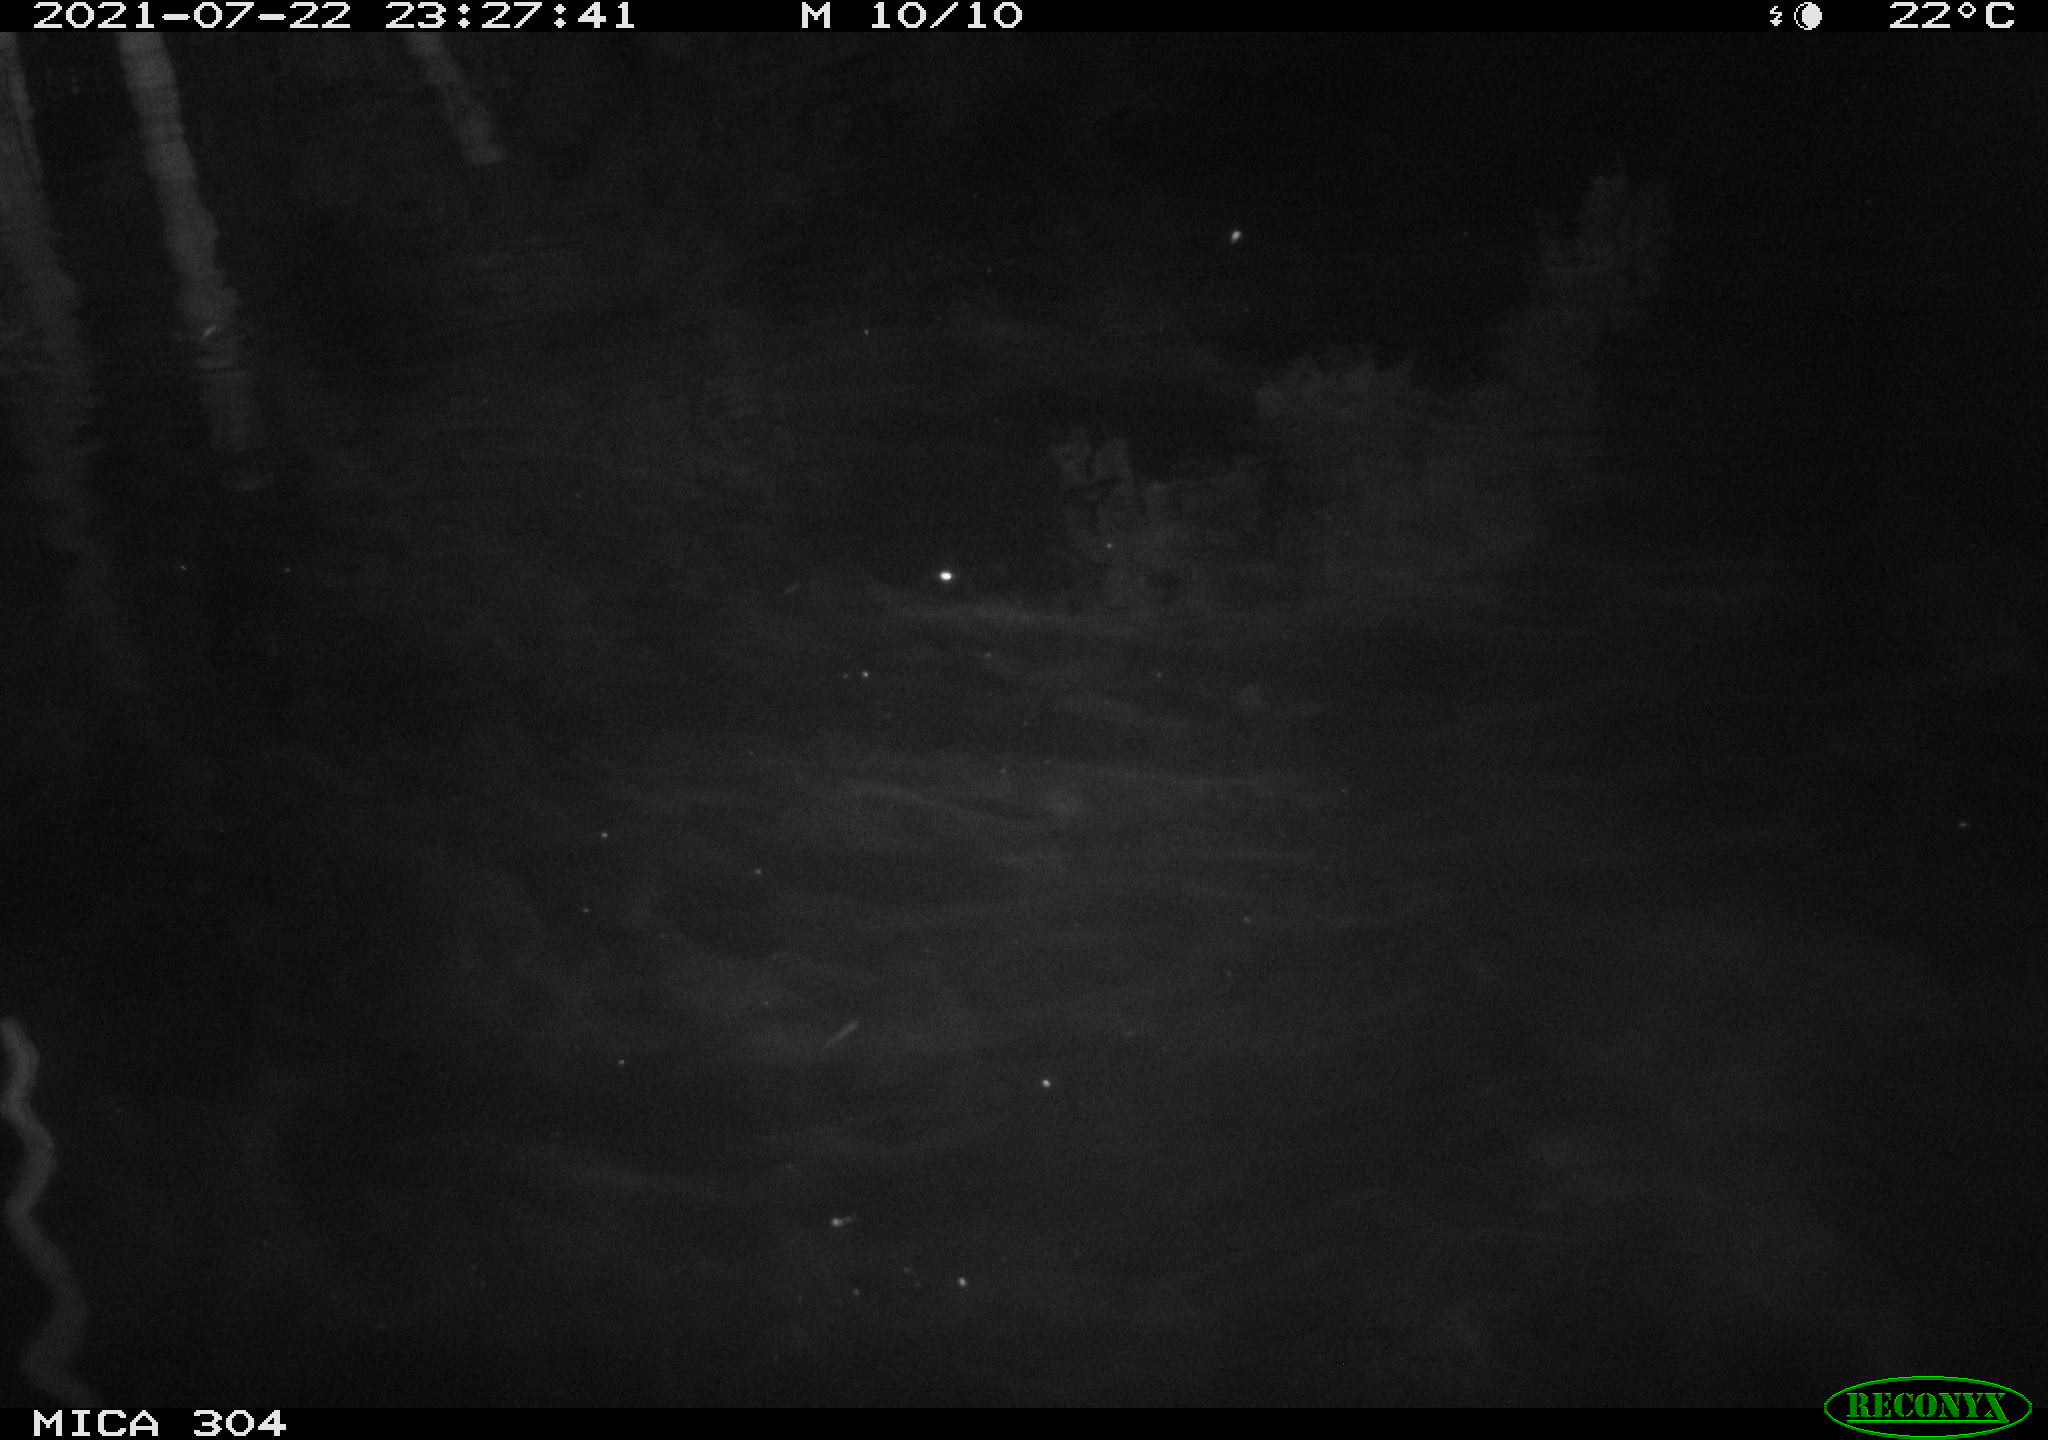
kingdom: Animalia
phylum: Chordata
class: Aves
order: Anseriformes
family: Anatidae
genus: Anas
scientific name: Anas platyrhynchos
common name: Mallard
